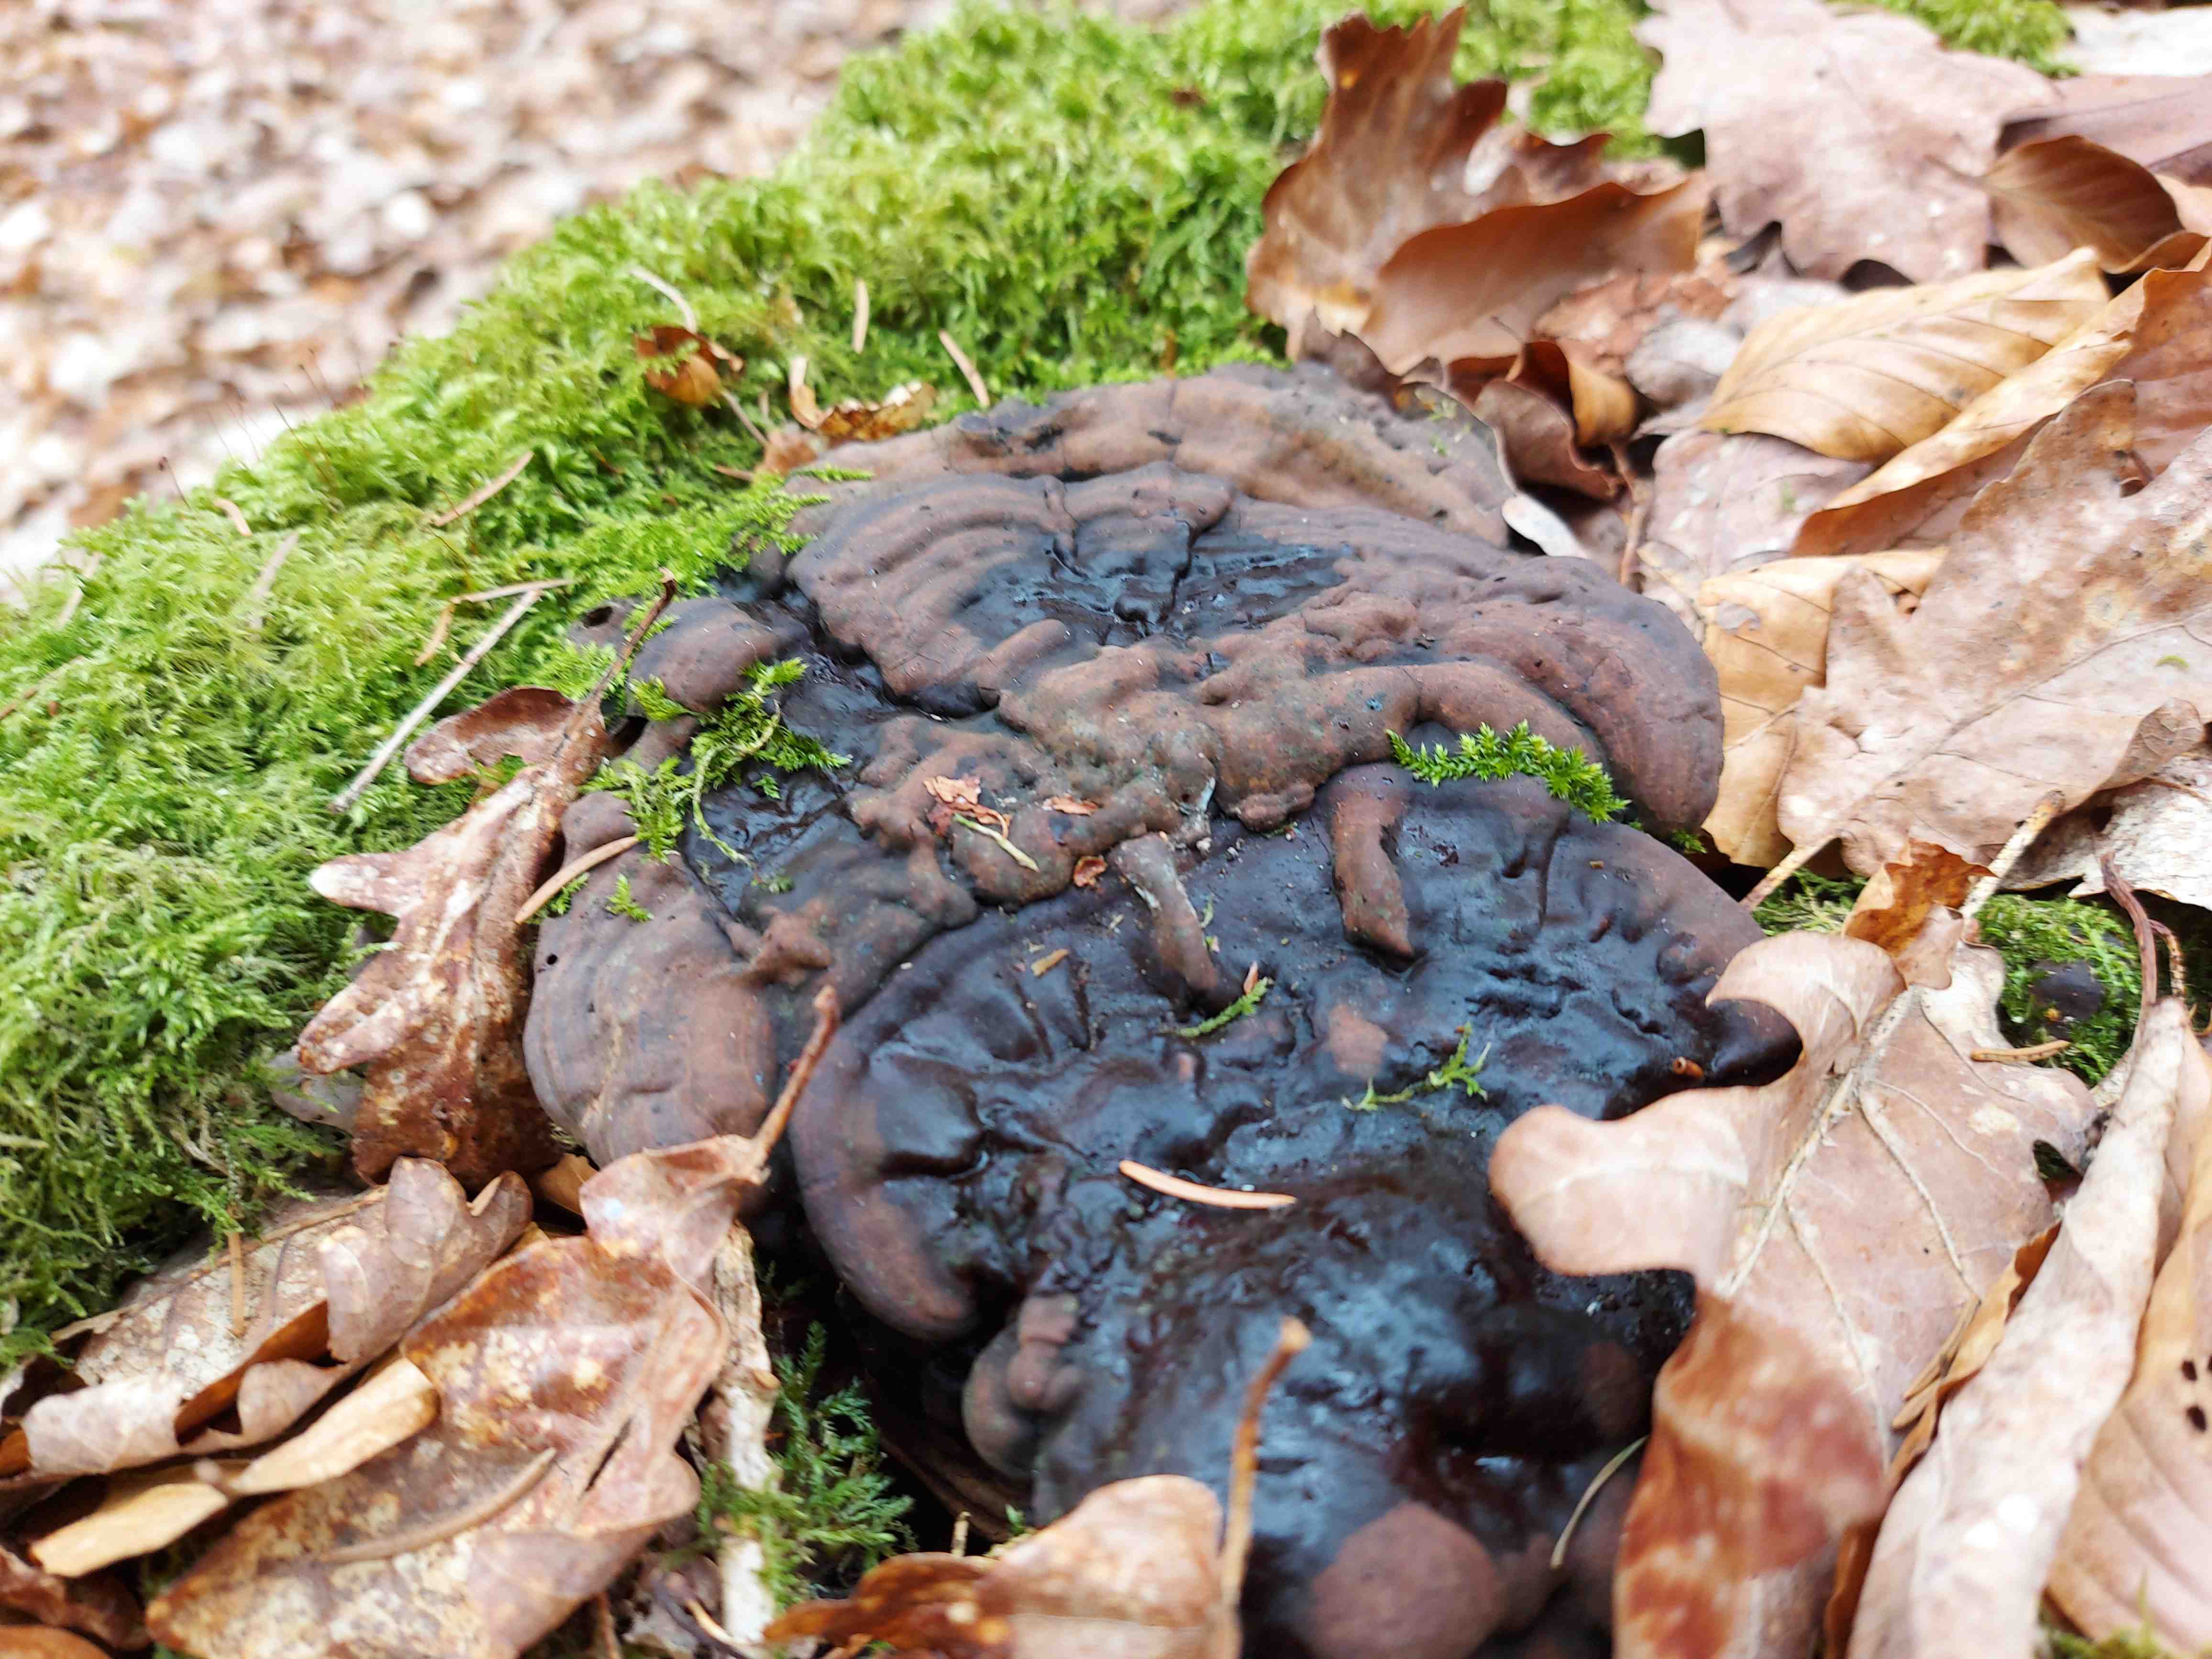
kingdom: Fungi
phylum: Basidiomycota
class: Agaricomycetes
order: Polyporales
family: Polyporaceae
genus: Ganoderma
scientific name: Ganoderma applanatum
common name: flad lakporesvamp
